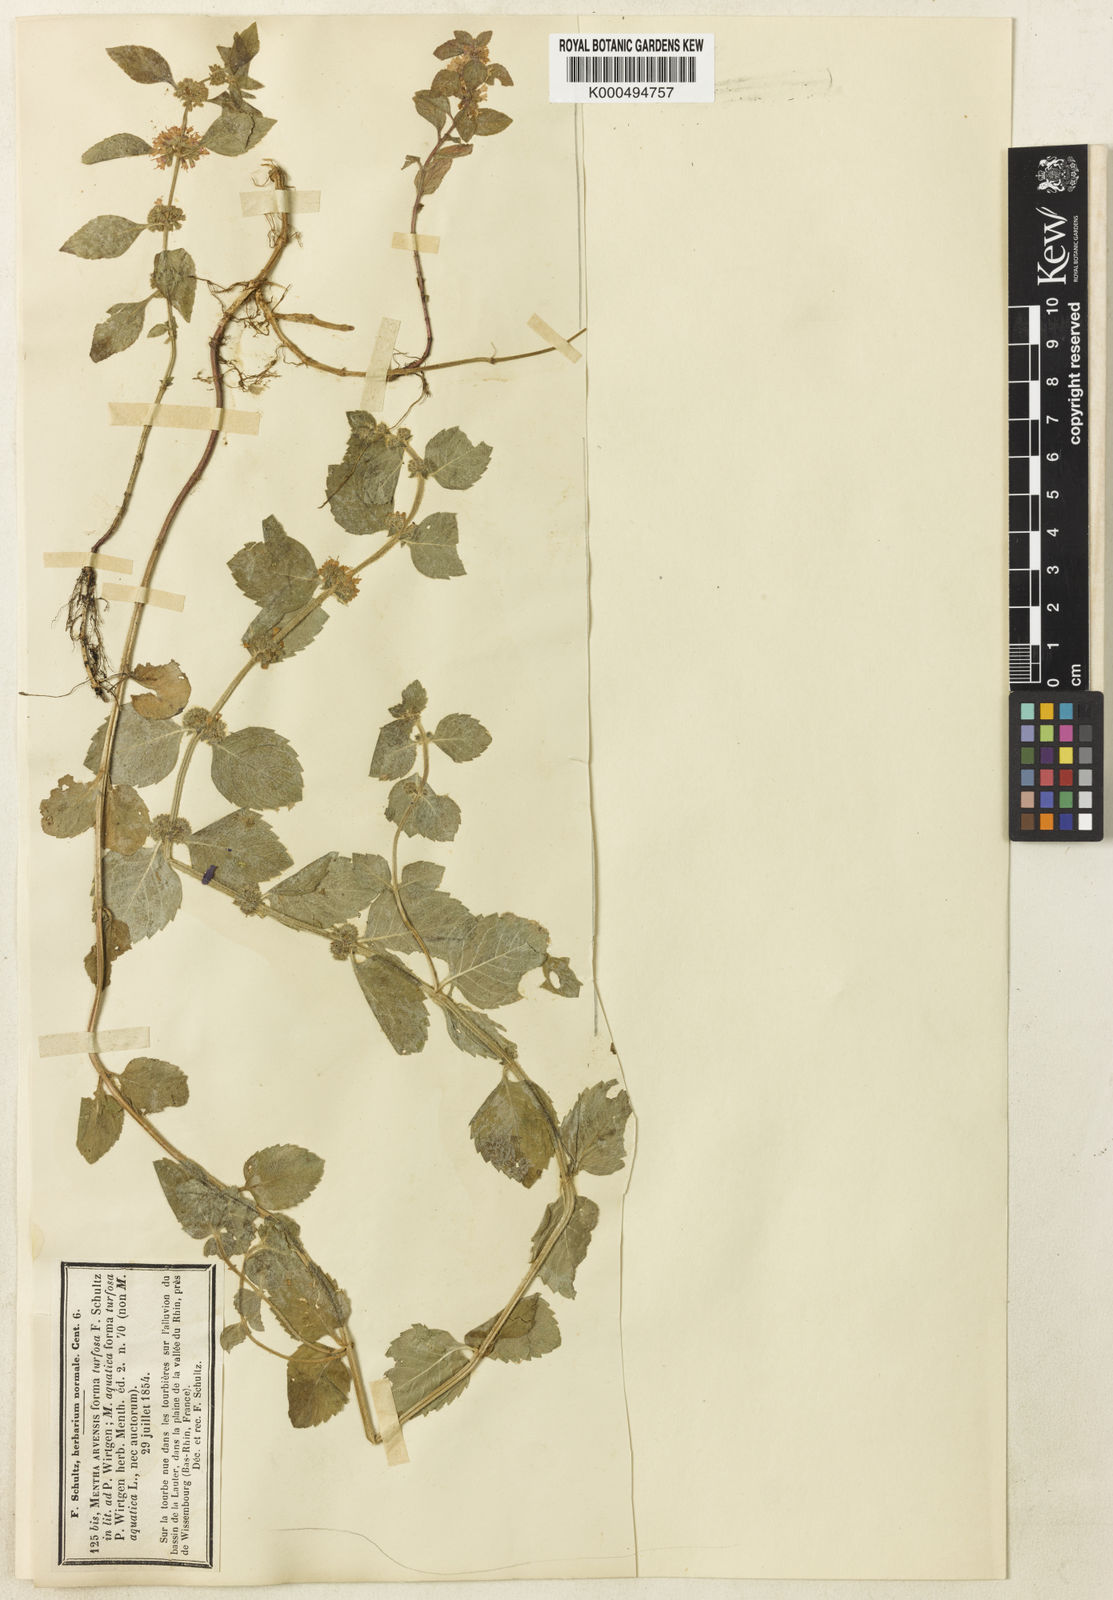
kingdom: Plantae
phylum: Tracheophyta
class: Magnoliopsida
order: Lamiales
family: Lamiaceae
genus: Mentha
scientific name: Mentha arvensis
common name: Corn mint
